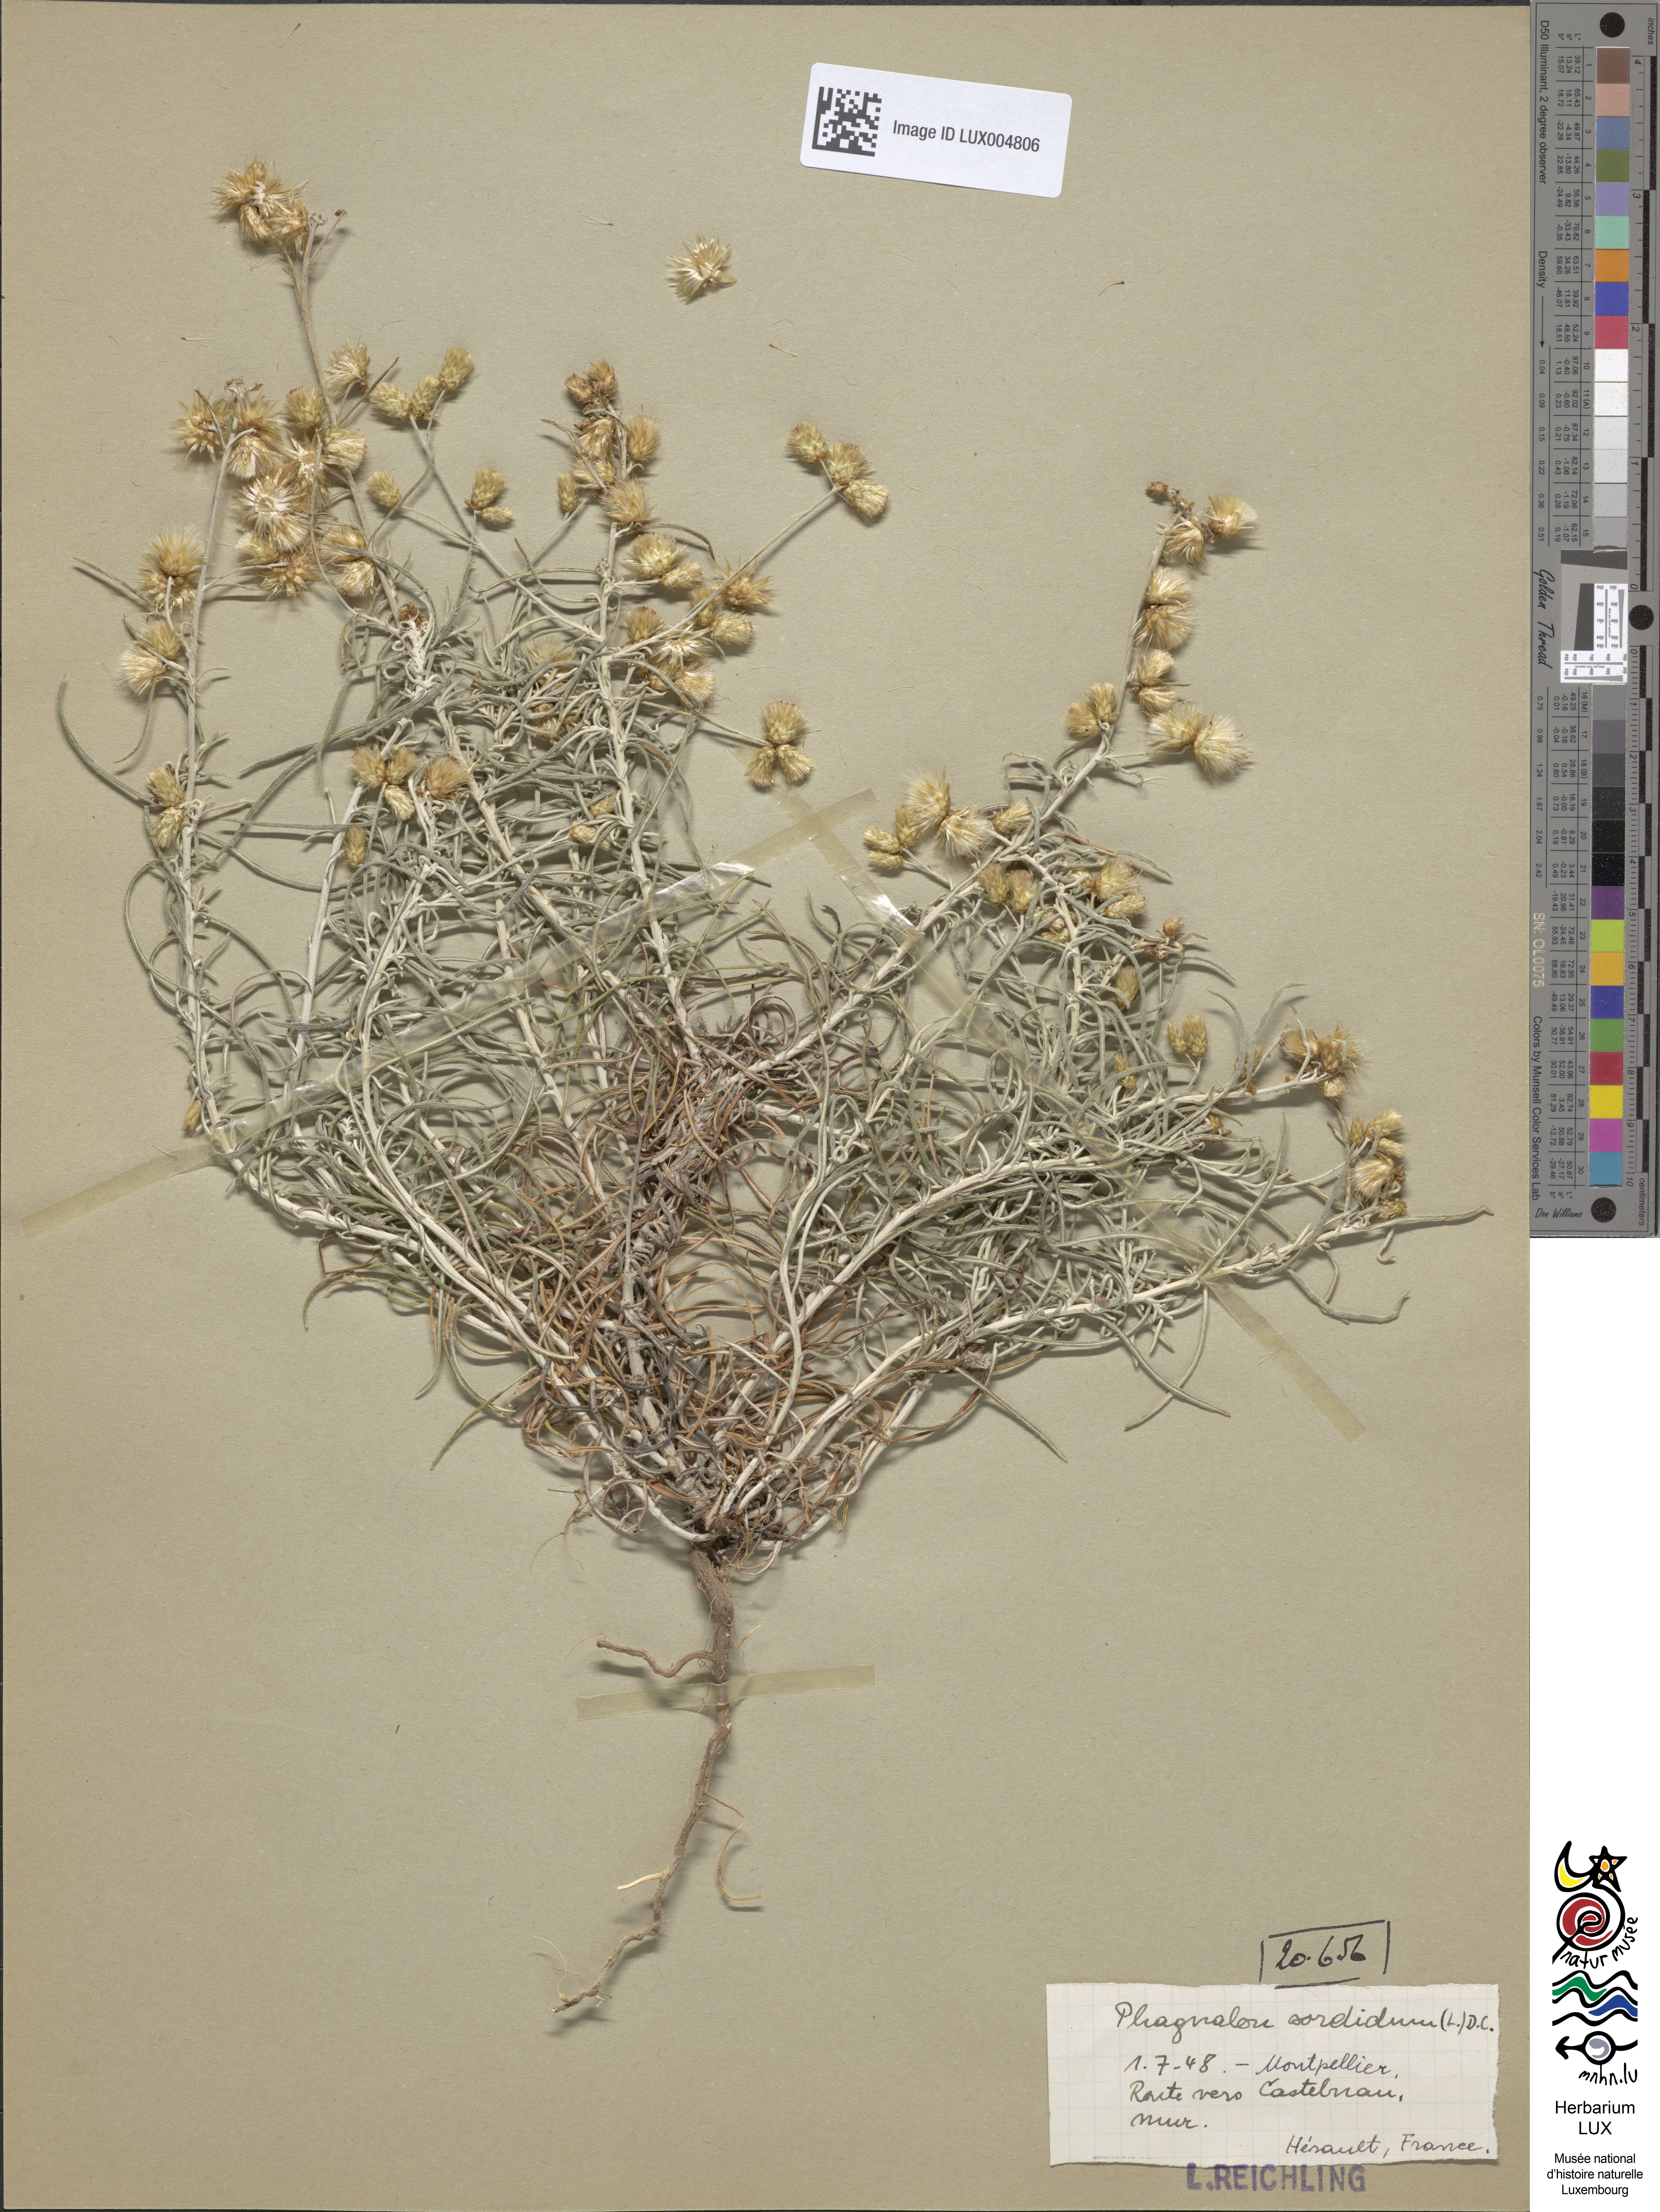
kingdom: Plantae
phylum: Tracheophyta
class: Magnoliopsida
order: Asterales
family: Asteraceae
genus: Phagnalon
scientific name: Phagnalon sordidum
